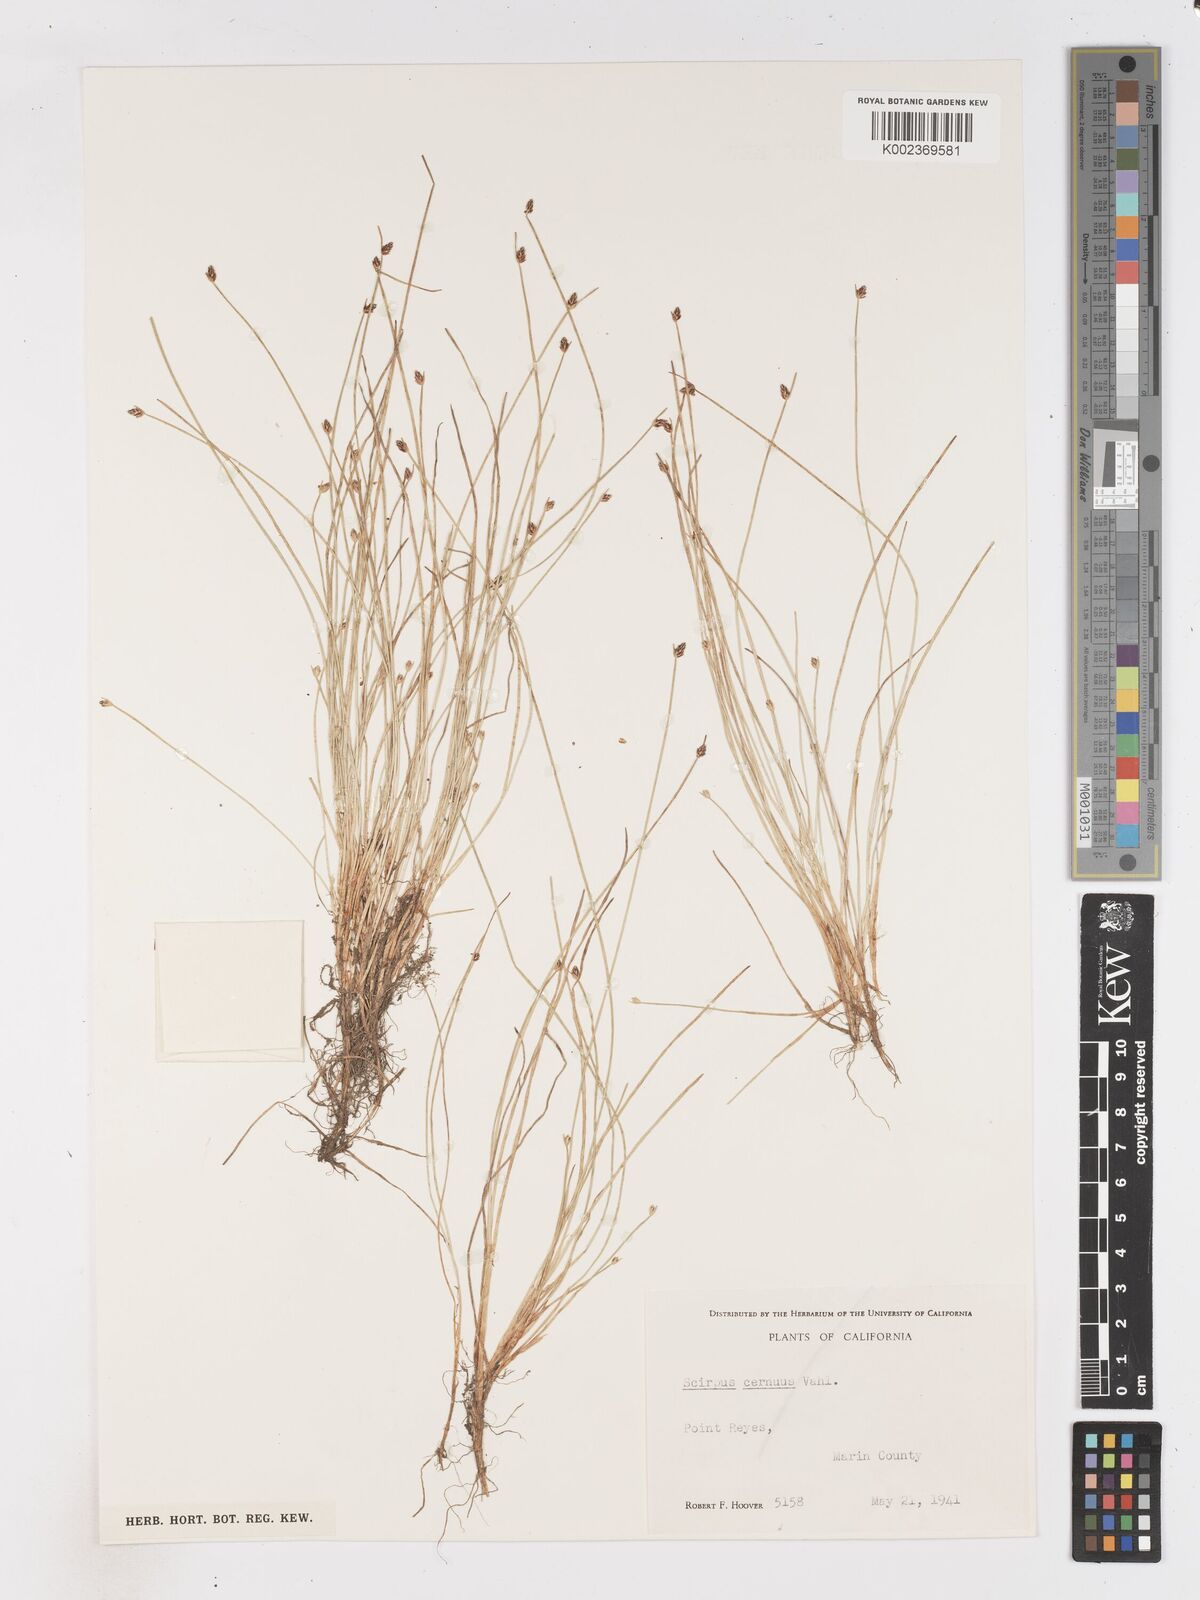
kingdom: Plantae
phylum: Tracheophyta
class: Liliopsida
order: Poales
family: Cyperaceae
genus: Isolepis
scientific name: Isolepis cernua
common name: Slender club-rush
